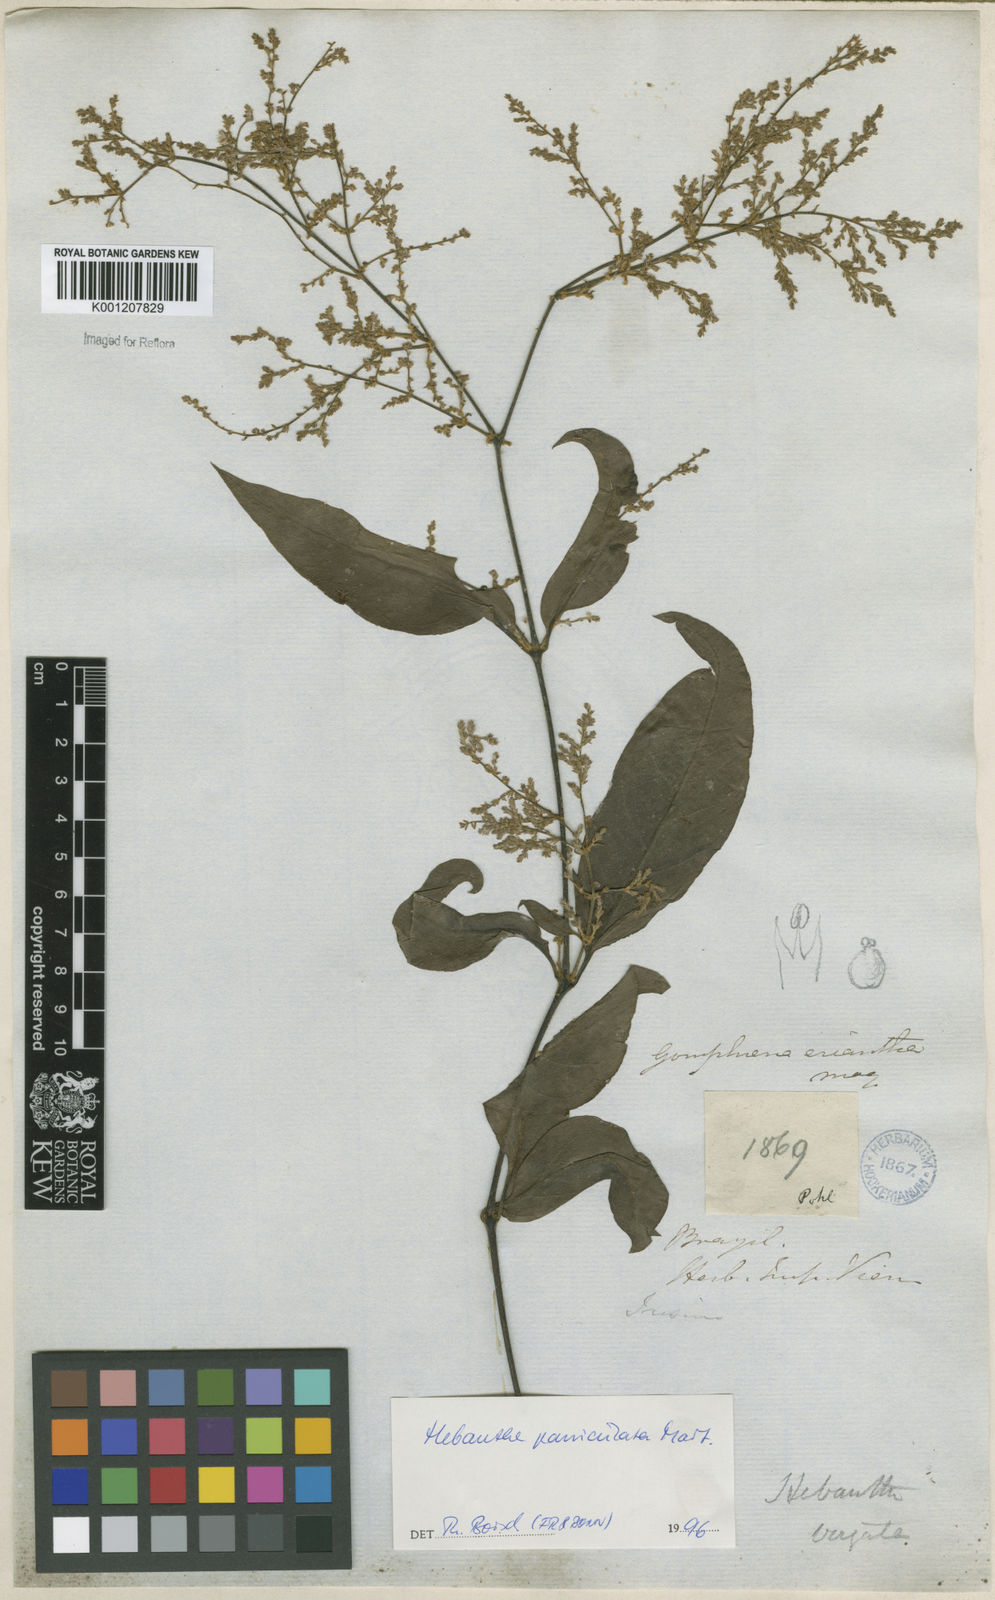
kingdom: Plantae
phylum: Tracheophyta
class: Magnoliopsida
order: Caryophyllales
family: Amaranthaceae
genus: Hebanthe
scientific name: Hebanthe erianthos
